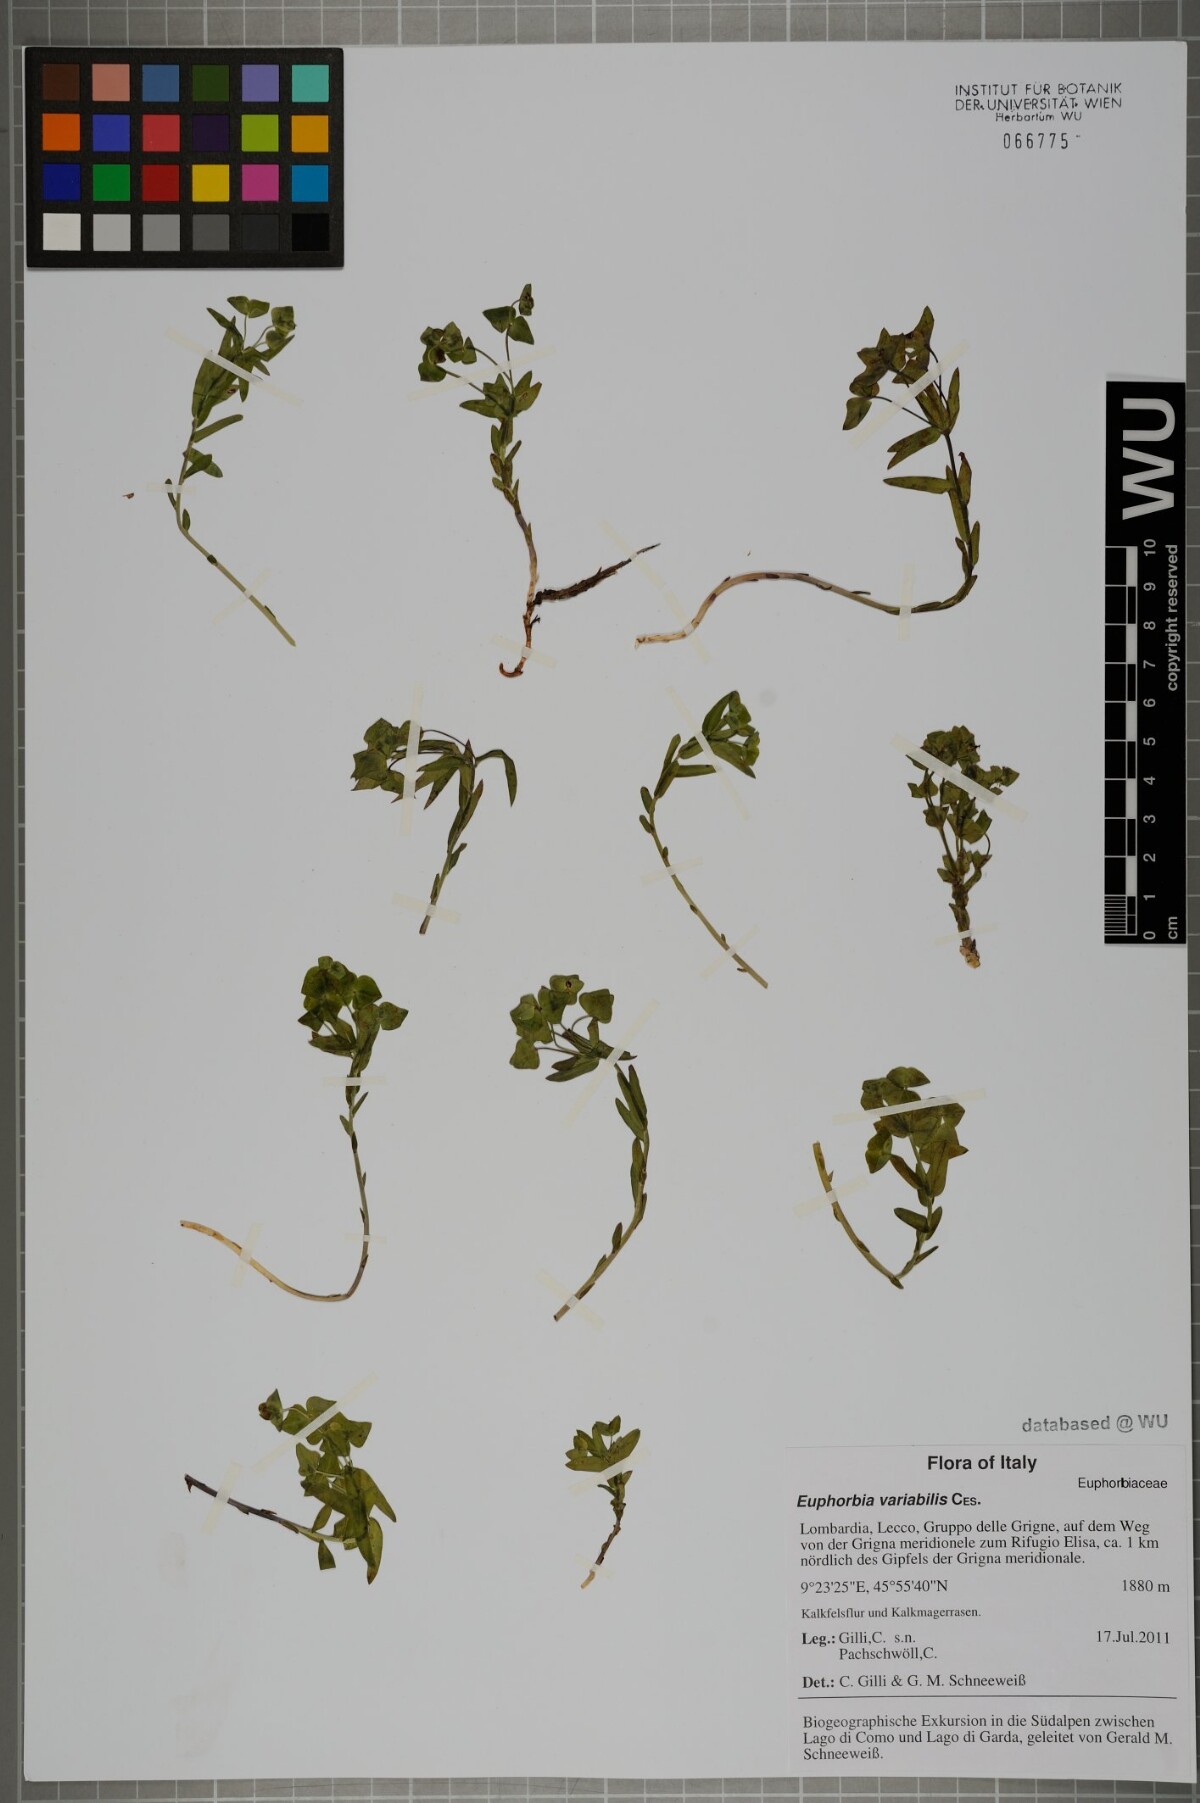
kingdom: Plantae
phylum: Tracheophyta
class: Magnoliopsida
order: Malpighiales
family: Euphorbiaceae
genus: Euphorbia
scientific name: Euphorbia variabilis
